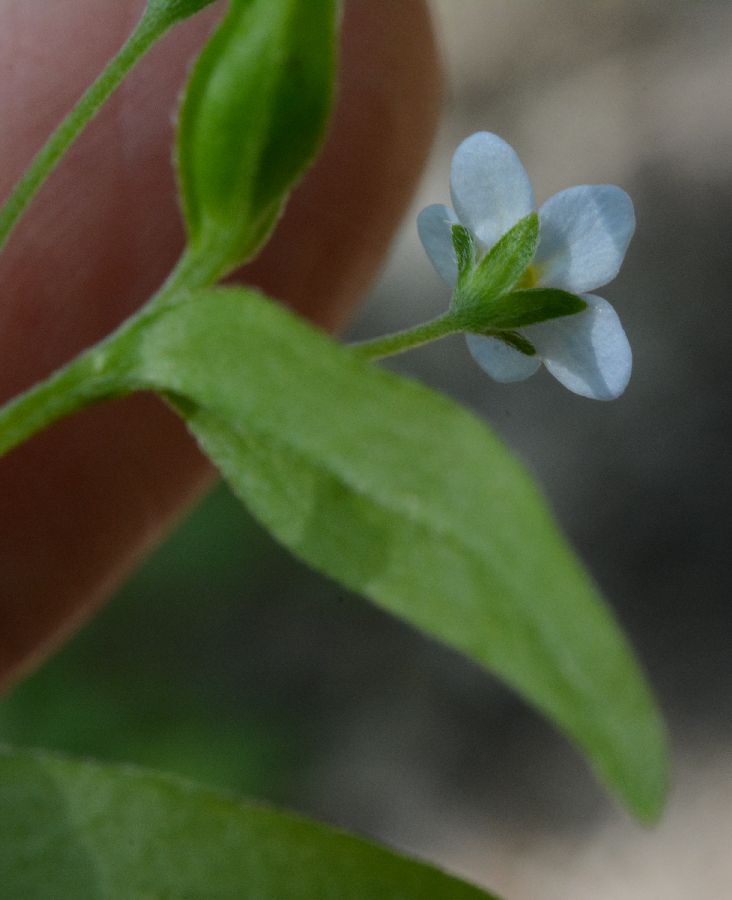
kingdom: Plantae
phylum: Tracheophyta
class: Magnoliopsida
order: Boraginales
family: Boraginaceae
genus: Memoremea
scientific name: Memoremea scorpioides
